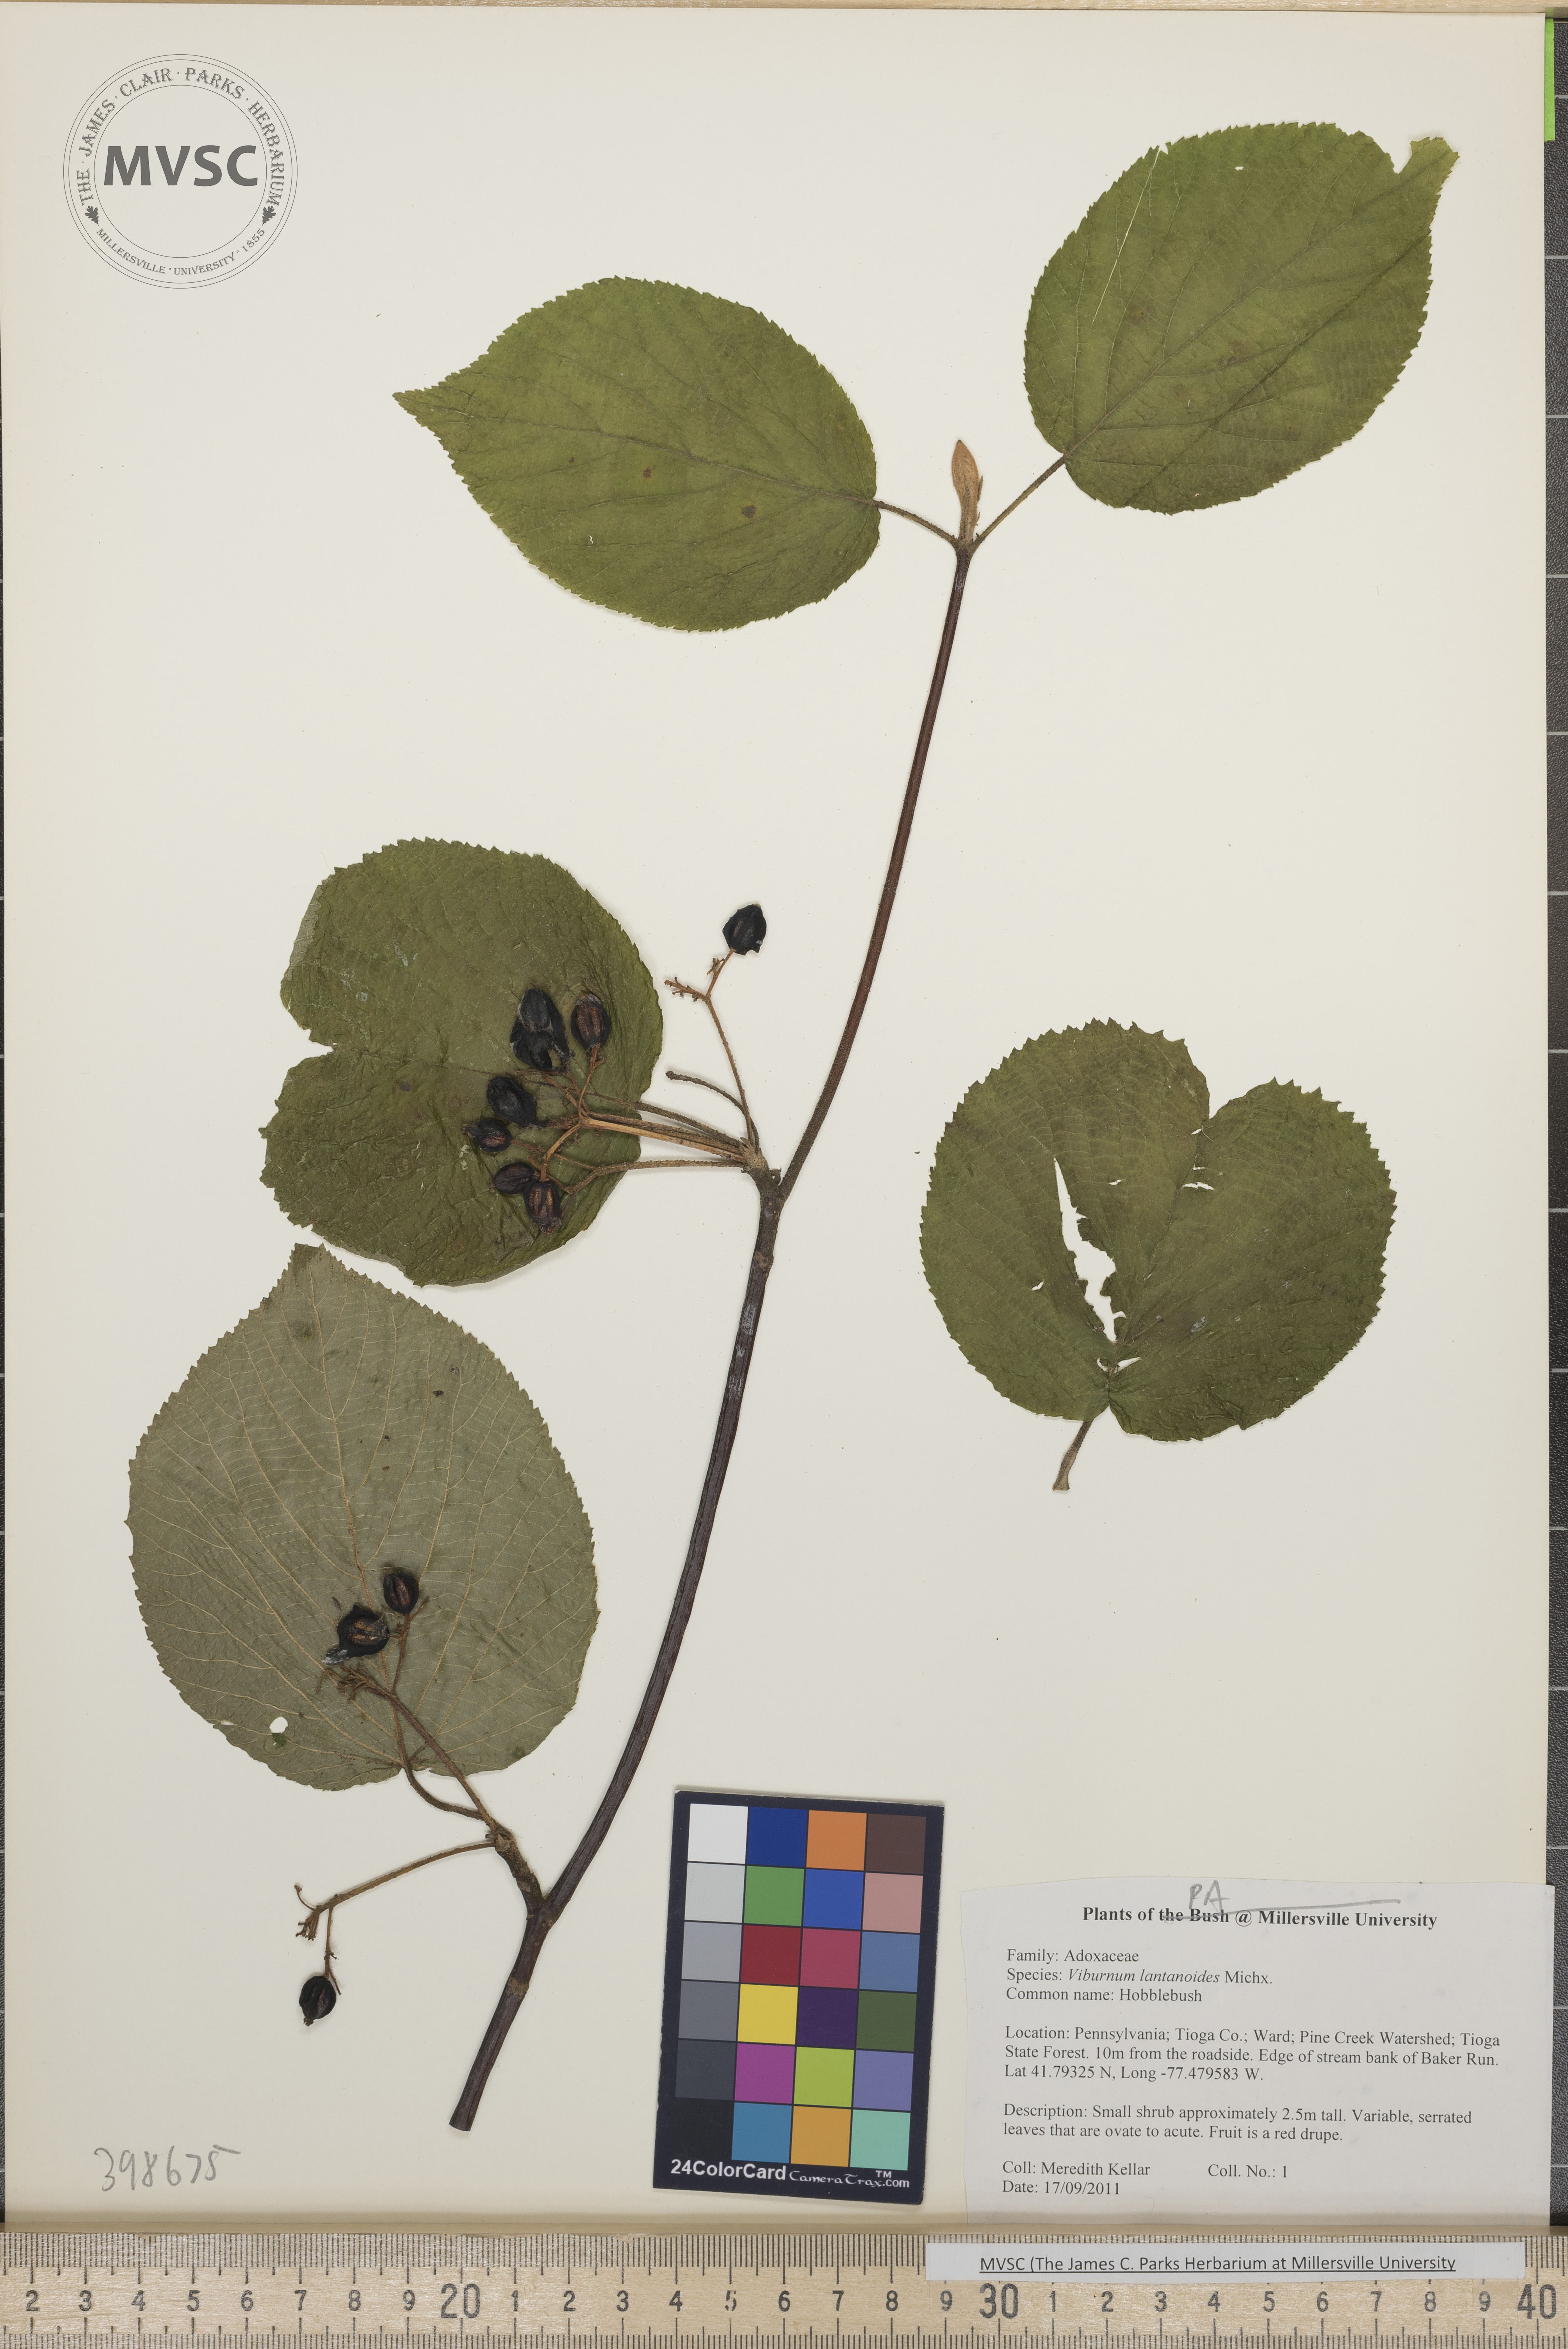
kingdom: Plantae
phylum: Tracheophyta
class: Magnoliopsida
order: Dipsacales
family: Viburnaceae
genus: Viburnum
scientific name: Viburnum lantanoides
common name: Hobblebush
